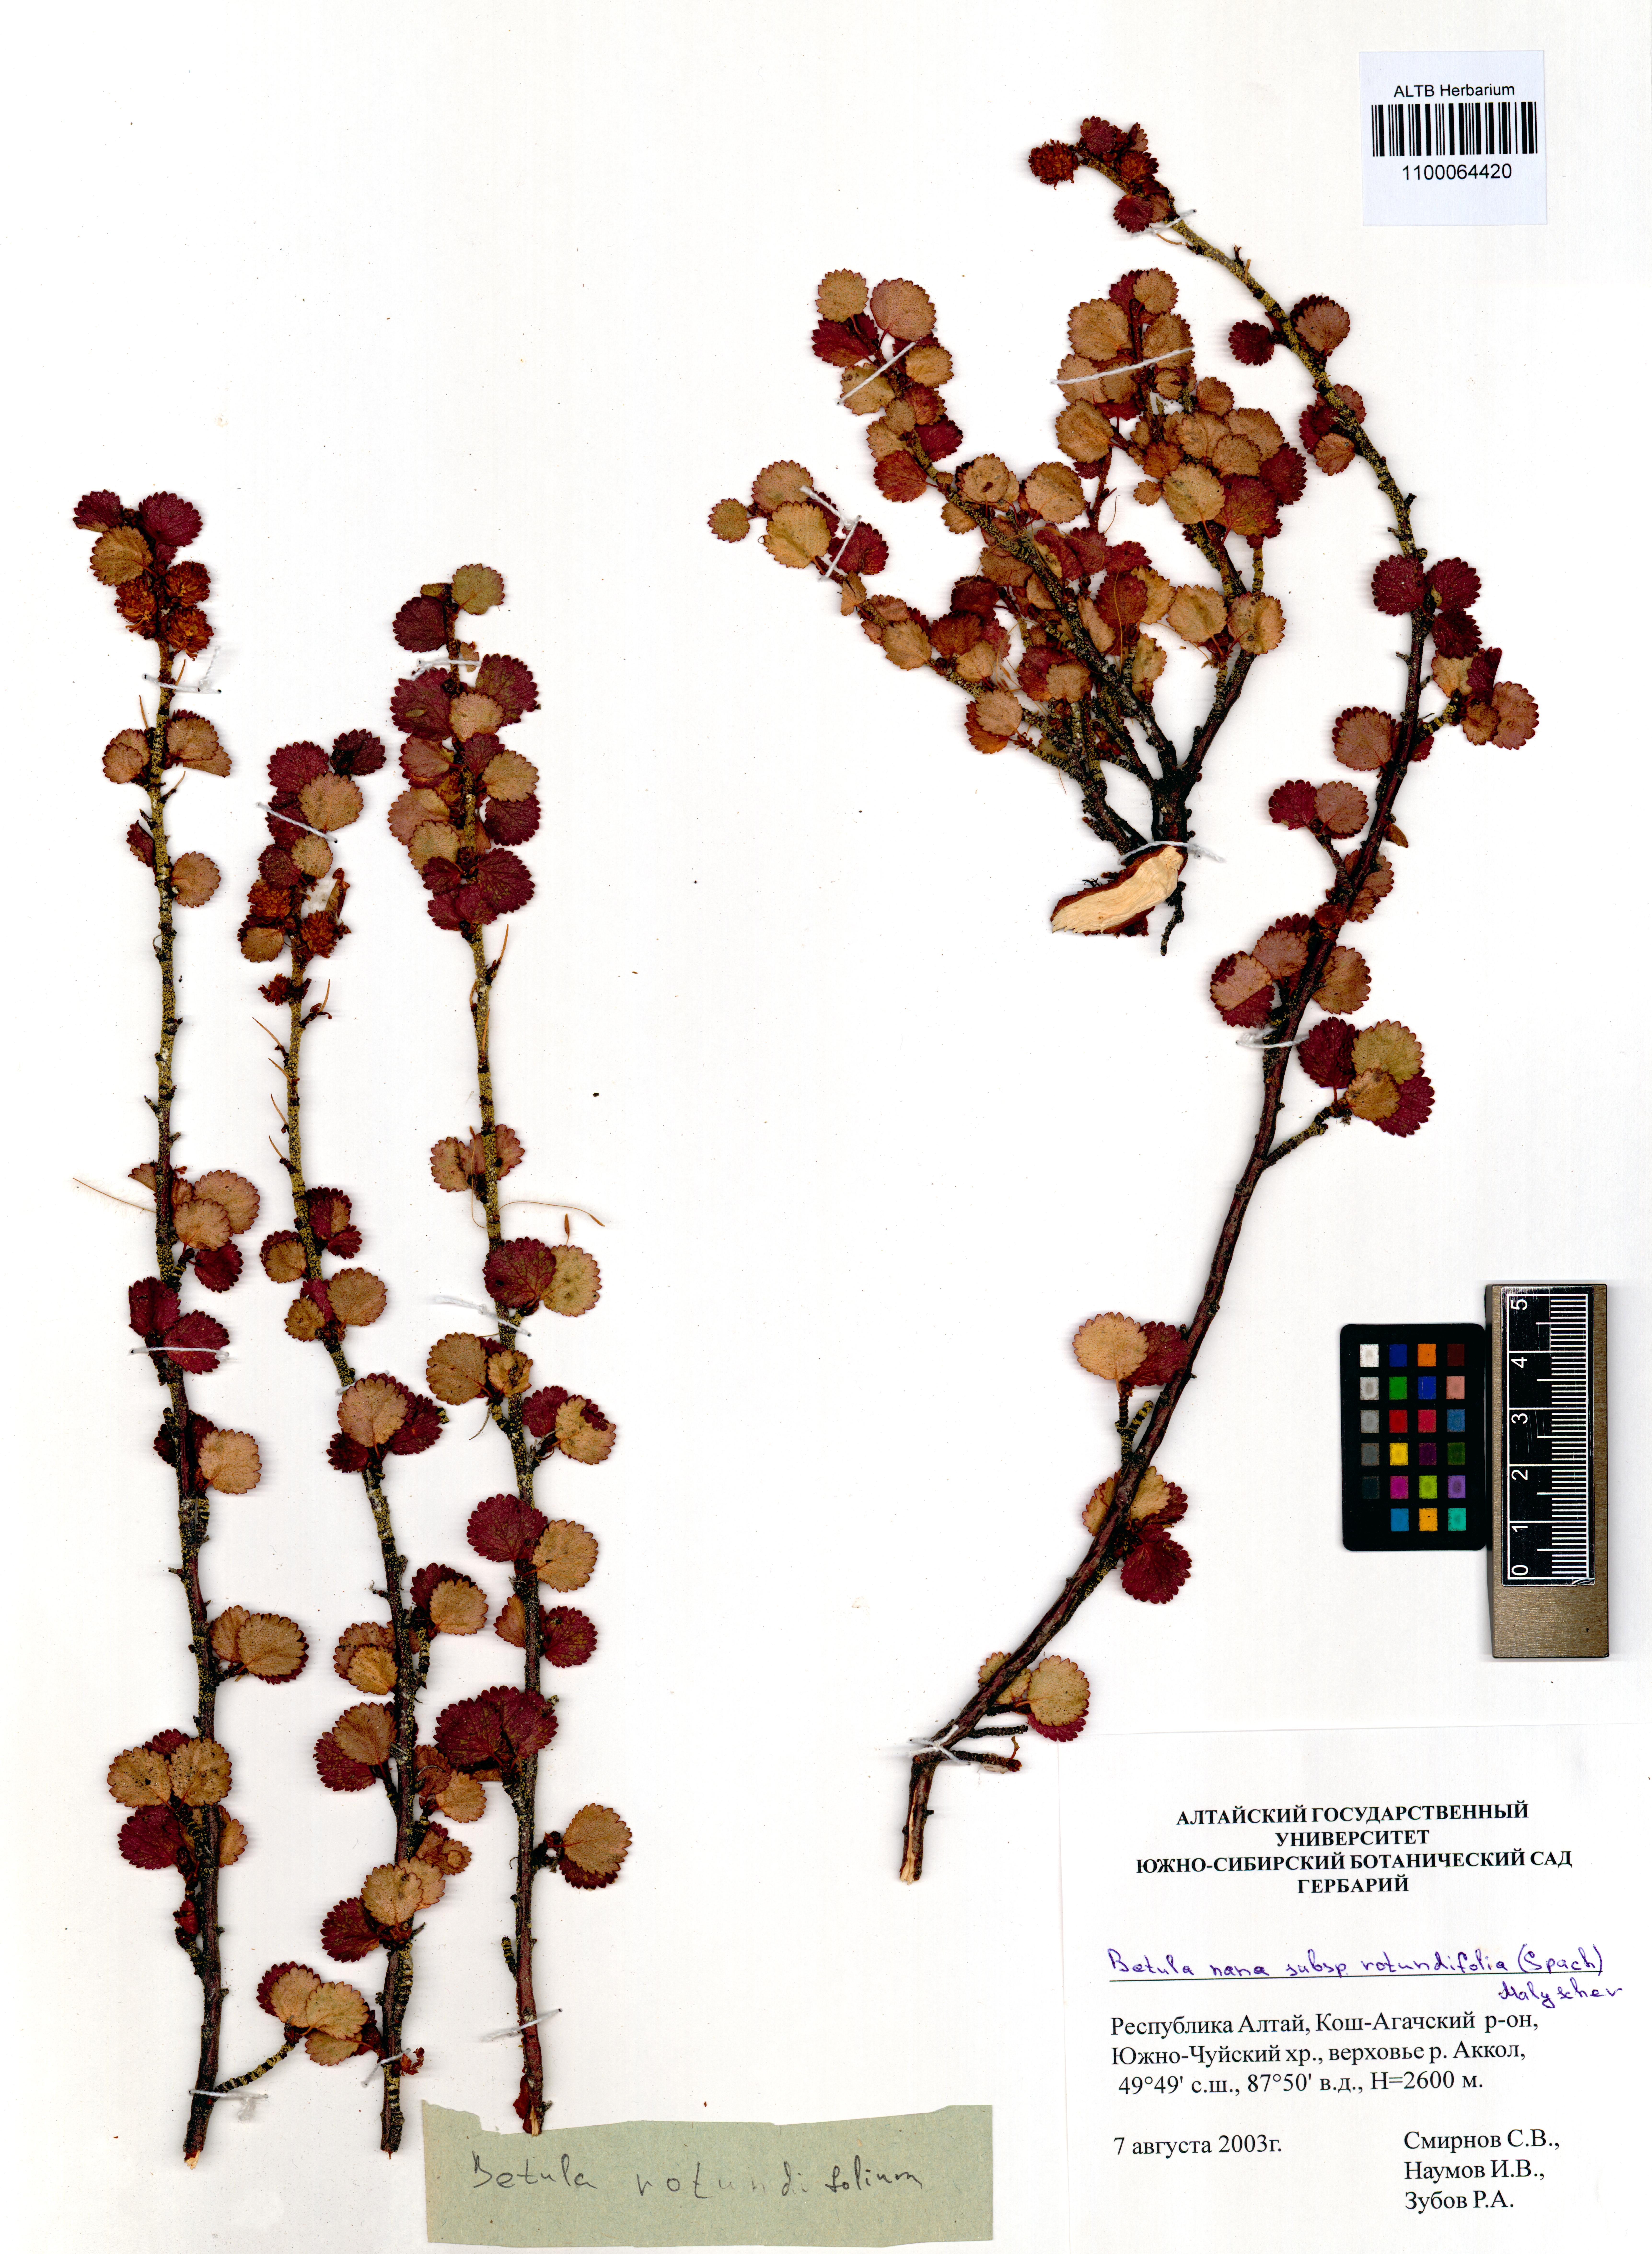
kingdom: Plantae
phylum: Tracheophyta
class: Magnoliopsida
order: Fagales
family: Betulaceae
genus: Betula
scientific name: Betula glandulosa
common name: Dwarf birch
